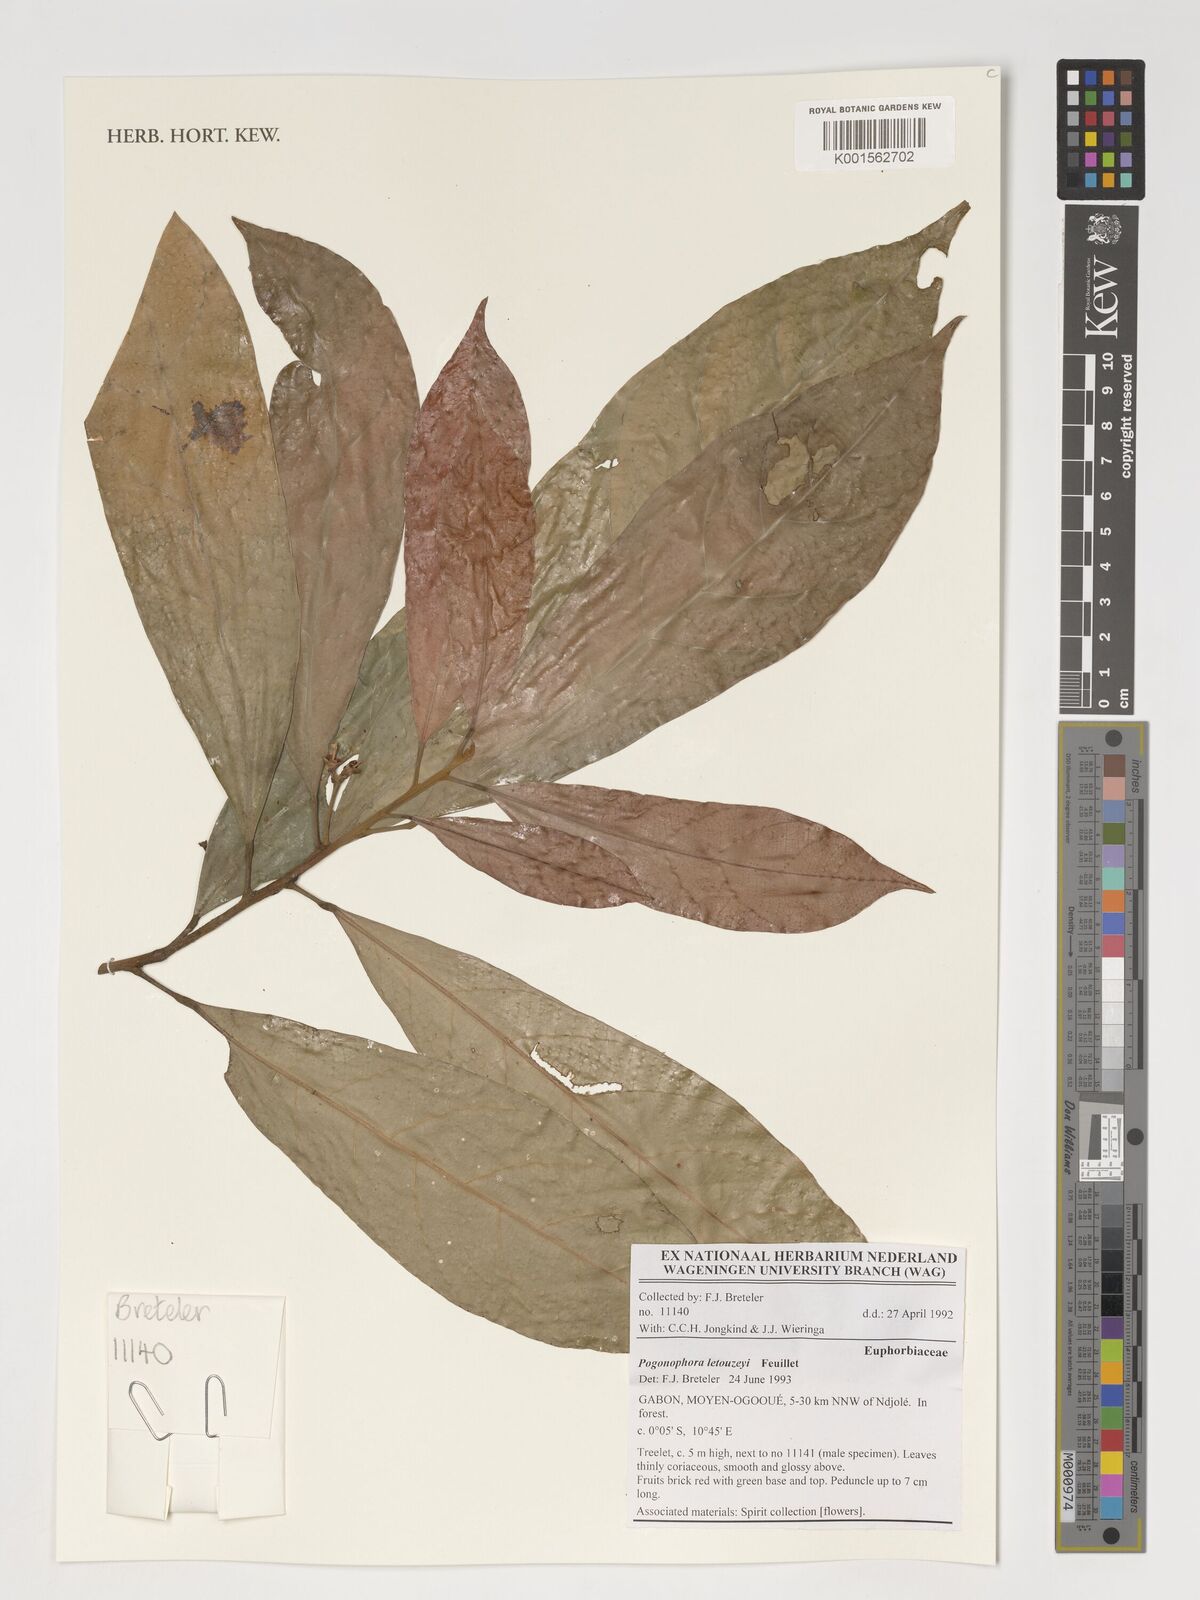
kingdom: Plantae
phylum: Tracheophyta
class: Magnoliopsida
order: Malpighiales
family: Peraceae
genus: Pogonophora
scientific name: Pogonophora letouzeyi
